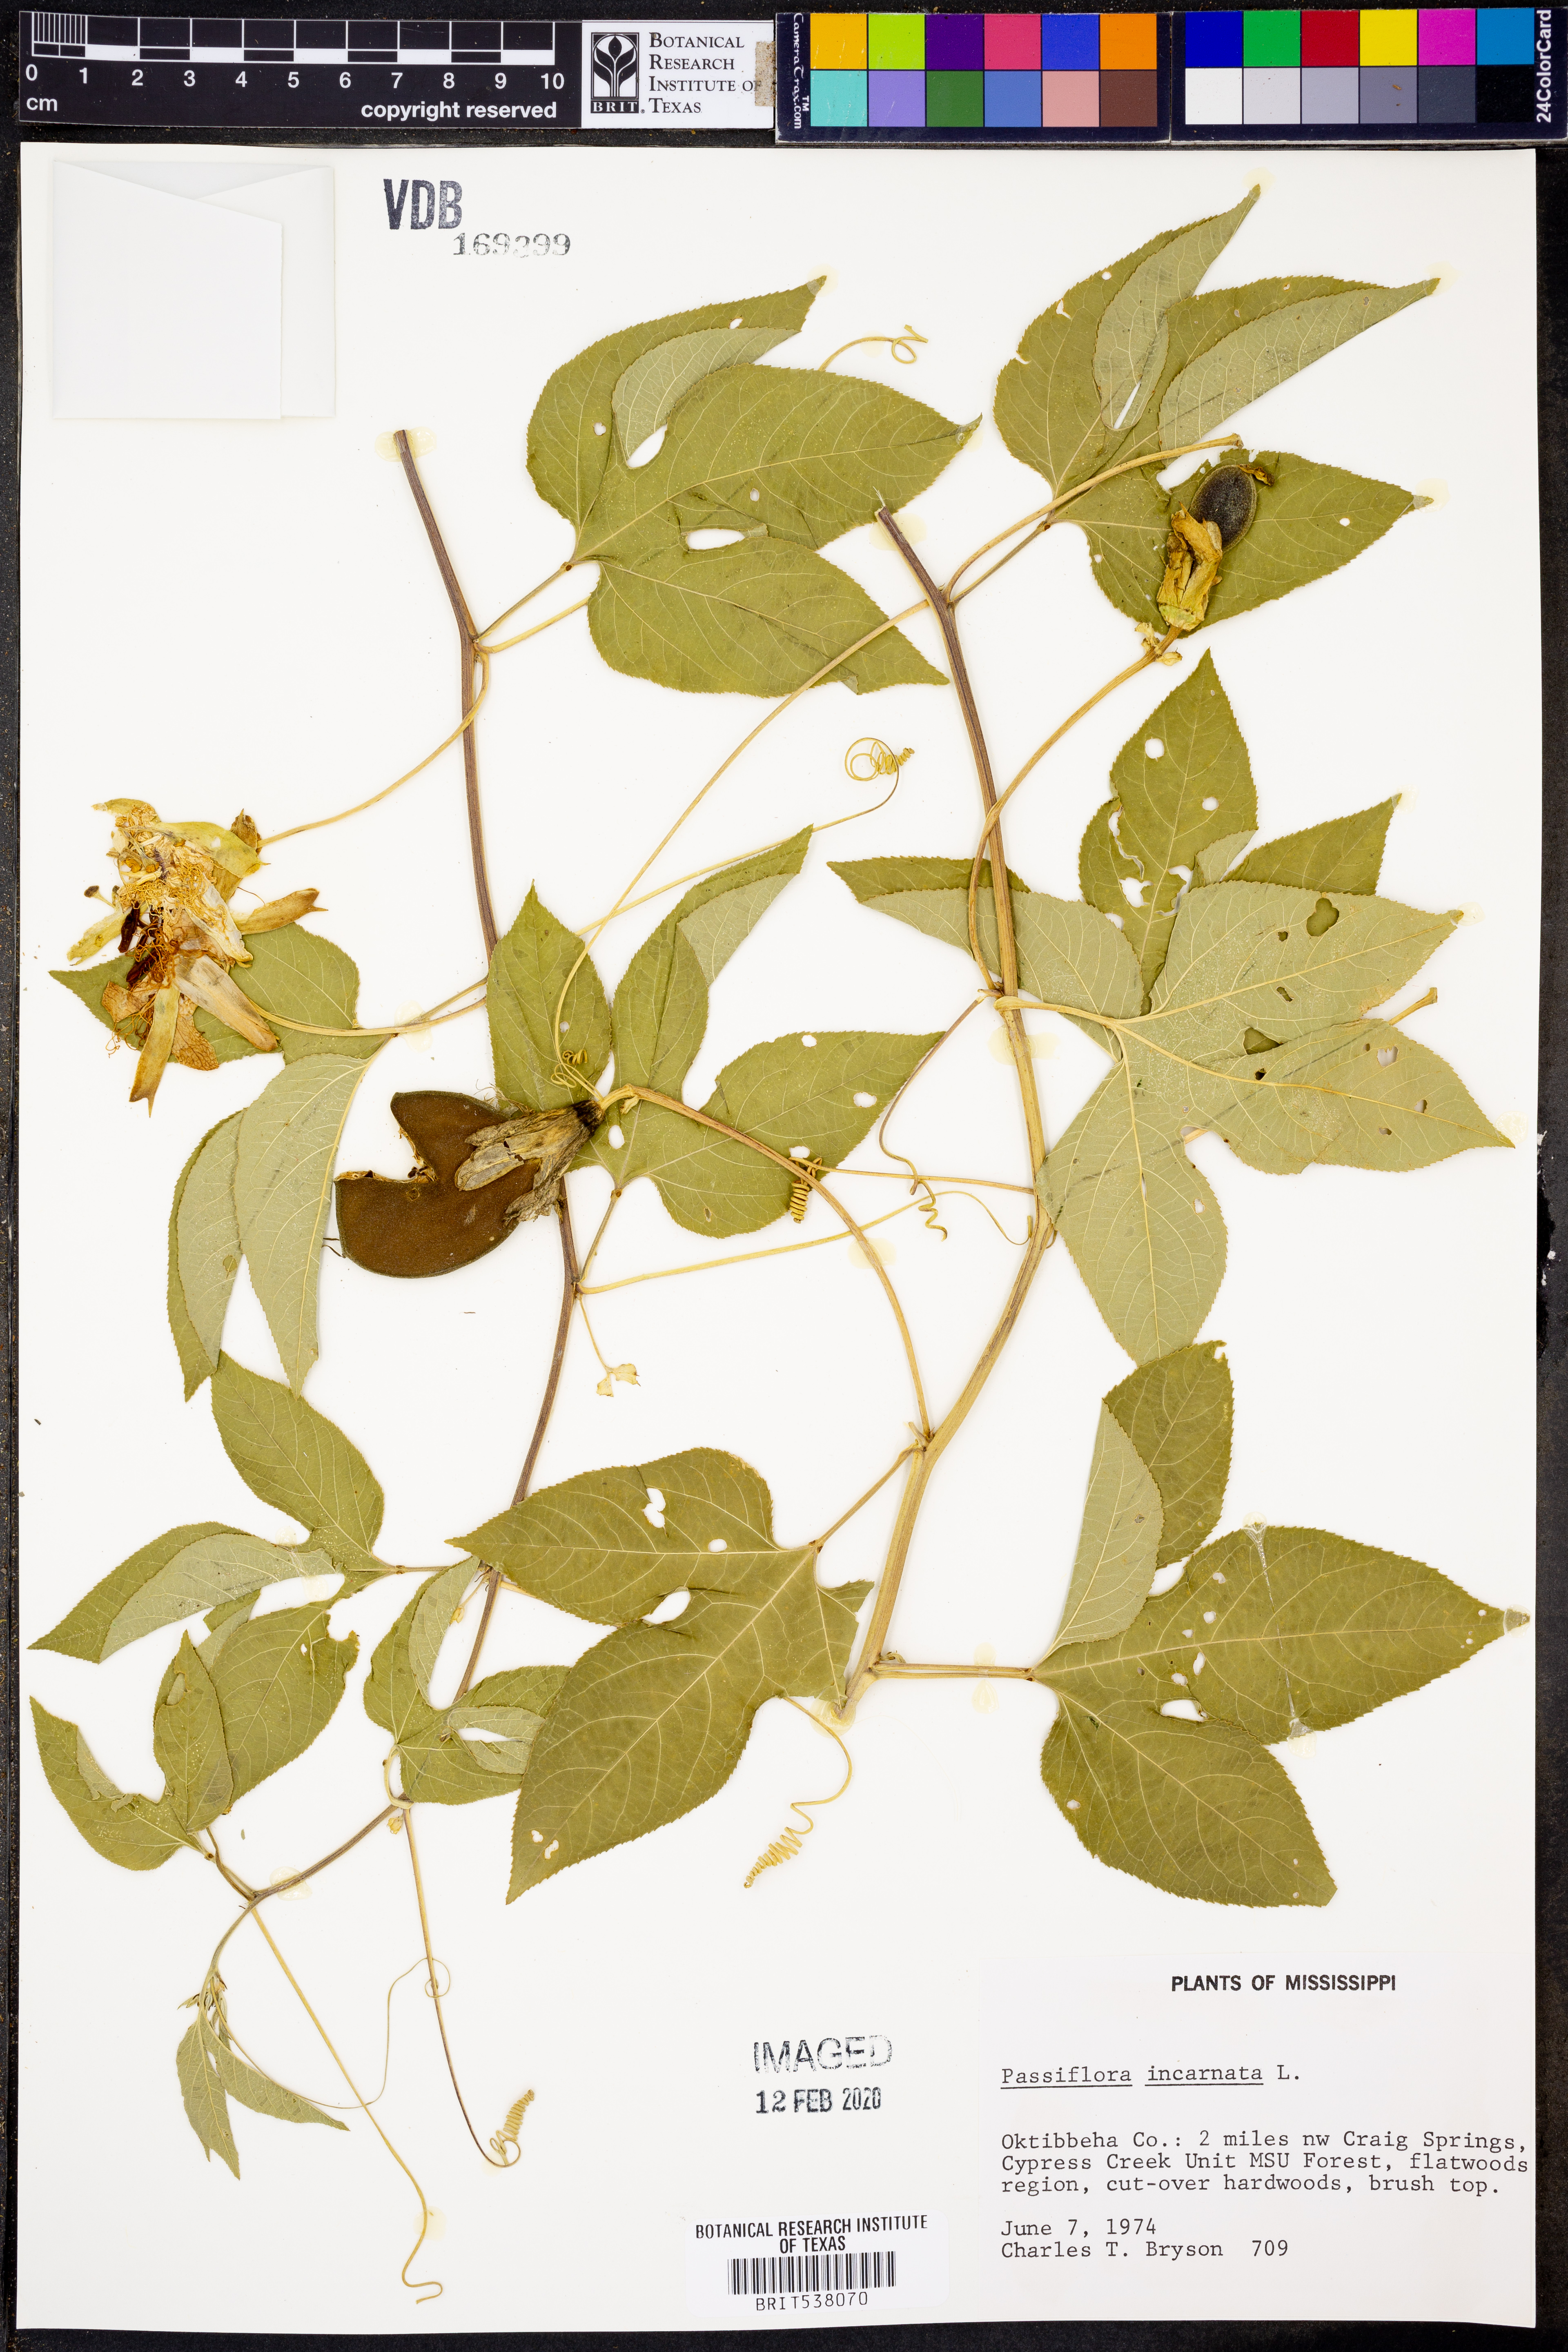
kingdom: Plantae
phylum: Tracheophyta
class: Magnoliopsida
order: Malpighiales
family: Passifloraceae
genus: Passiflora
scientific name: Passiflora incarnata
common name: Apricot-vine
